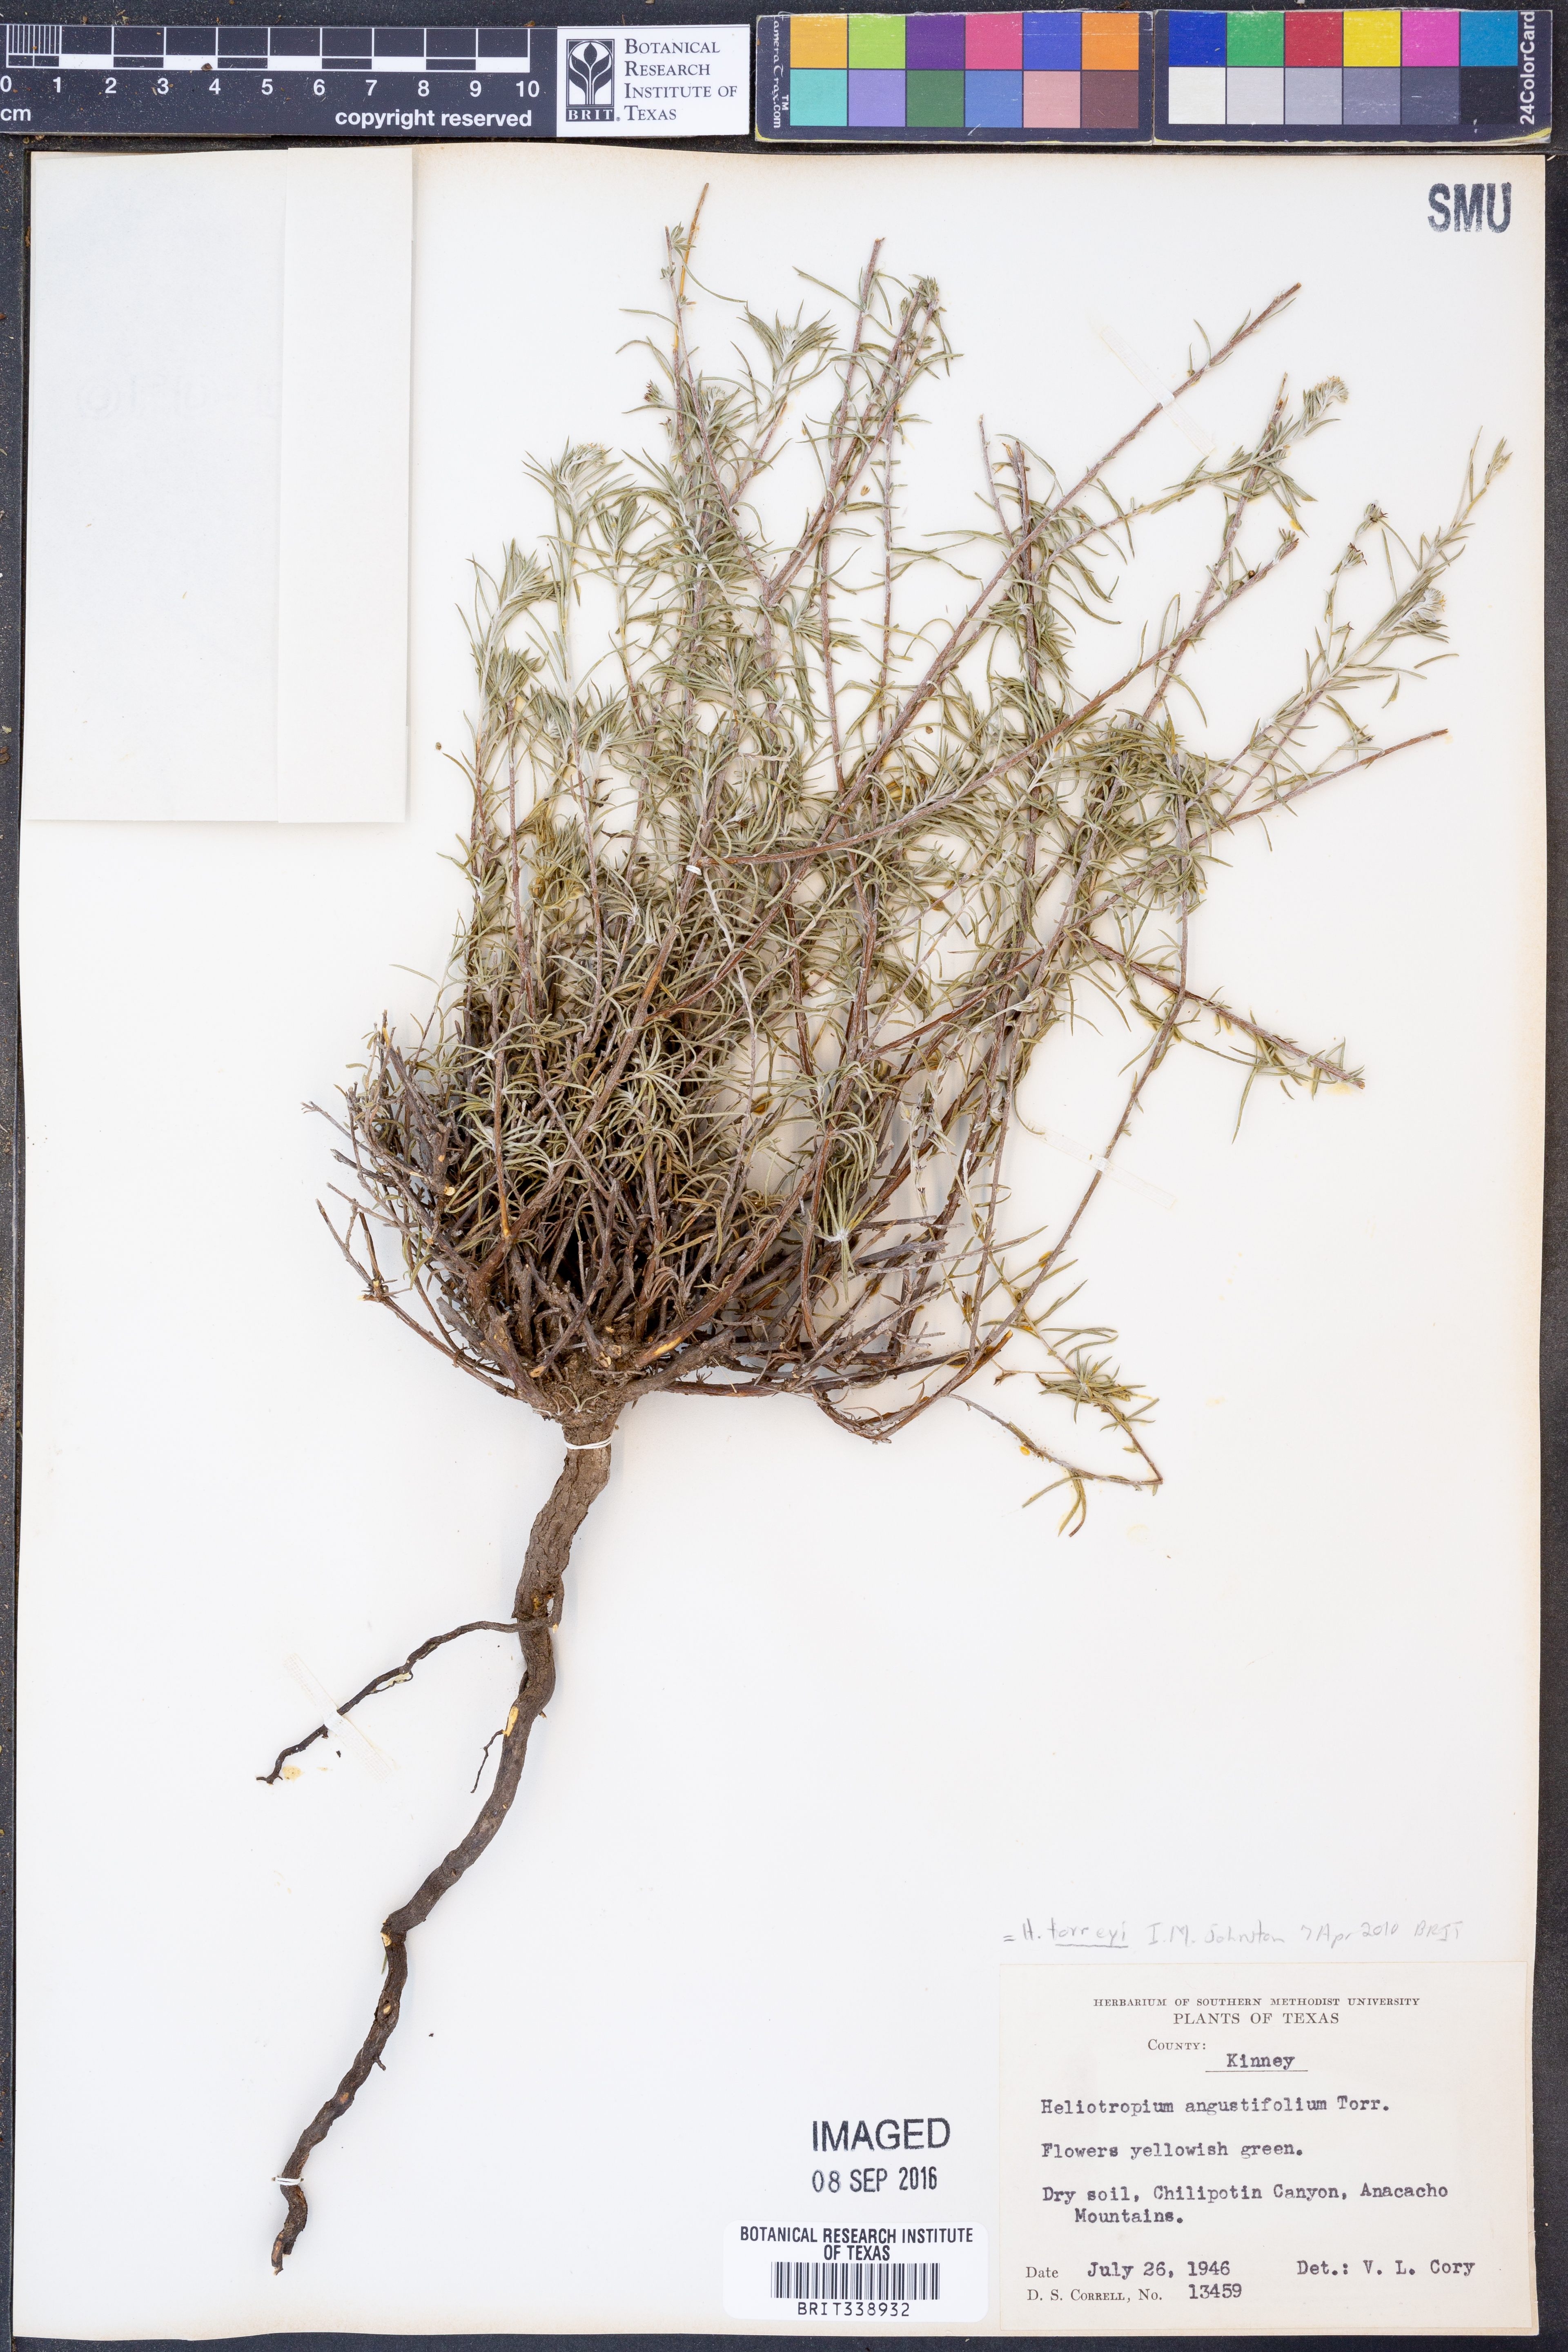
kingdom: Plantae
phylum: Tracheophyta
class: Magnoliopsida
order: Boraginales
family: Heliotropiaceae
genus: Euploca
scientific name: Euploca torreyi
